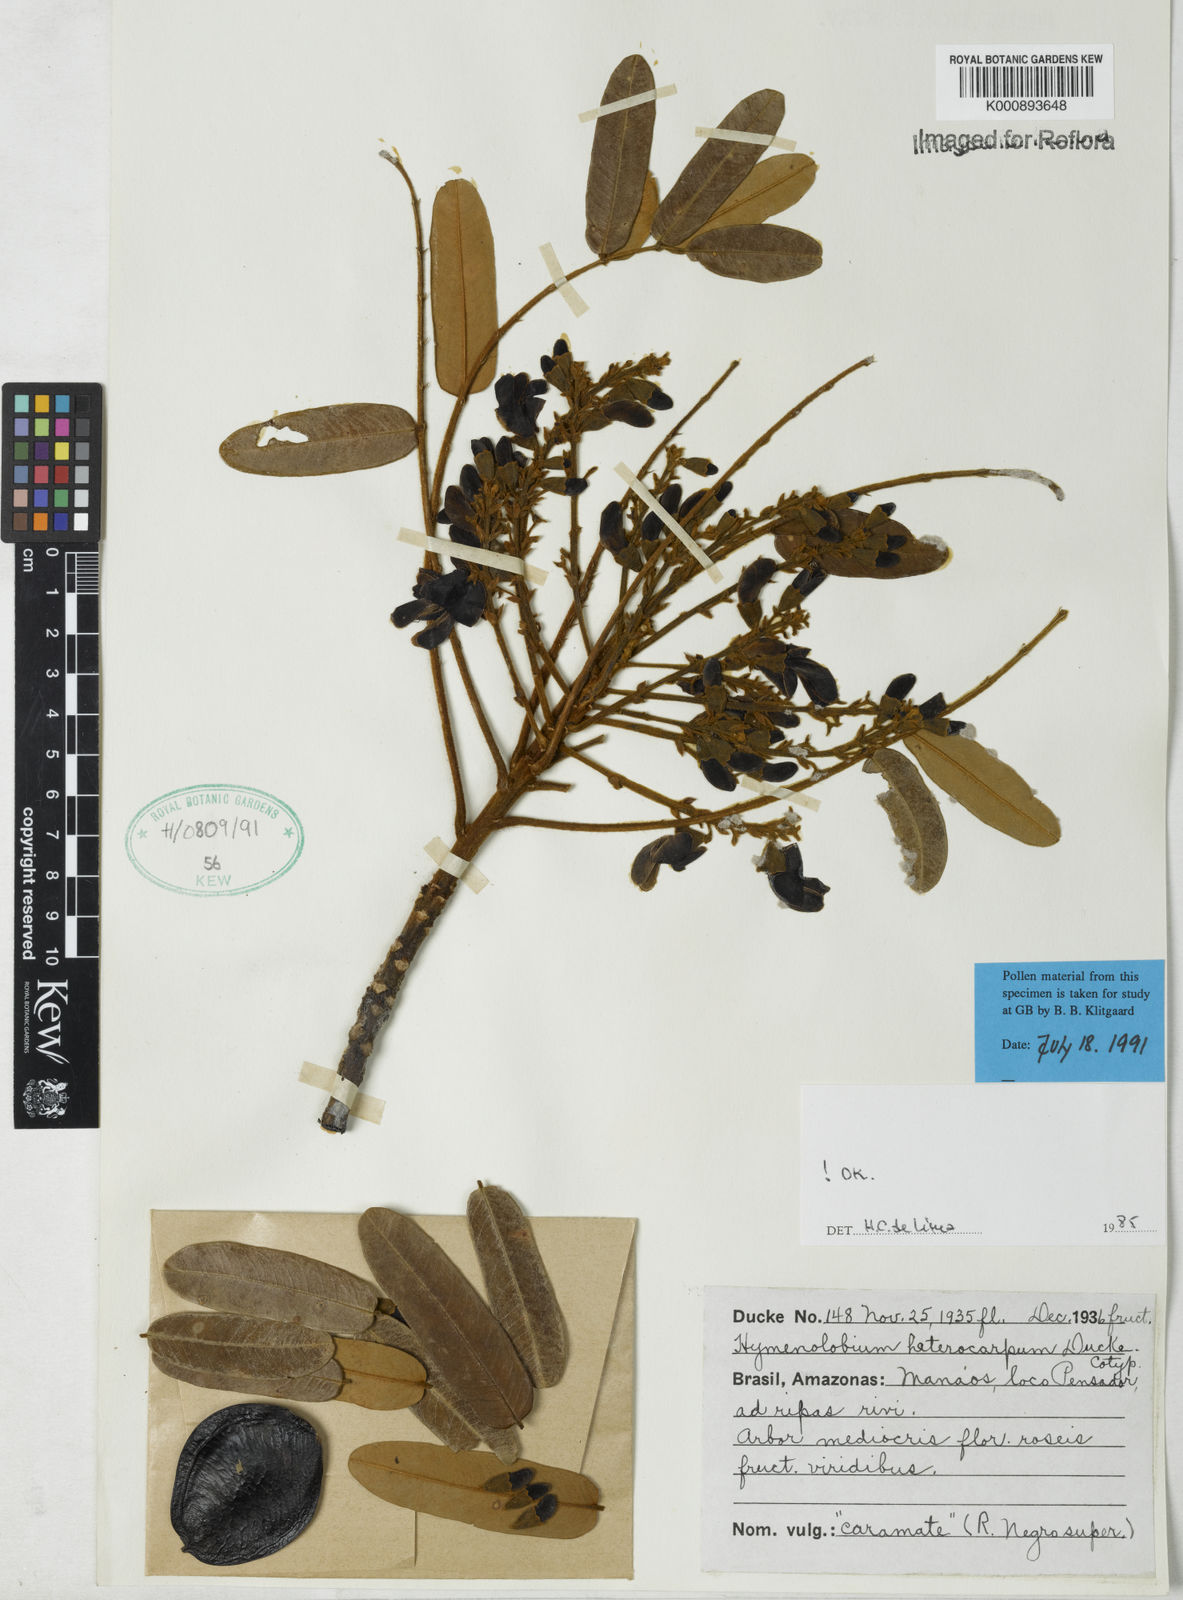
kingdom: Plantae
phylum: Tracheophyta
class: Magnoliopsida
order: Fabales
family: Fabaceae
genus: Hymenolobium
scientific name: Hymenolobium heterocarpum
